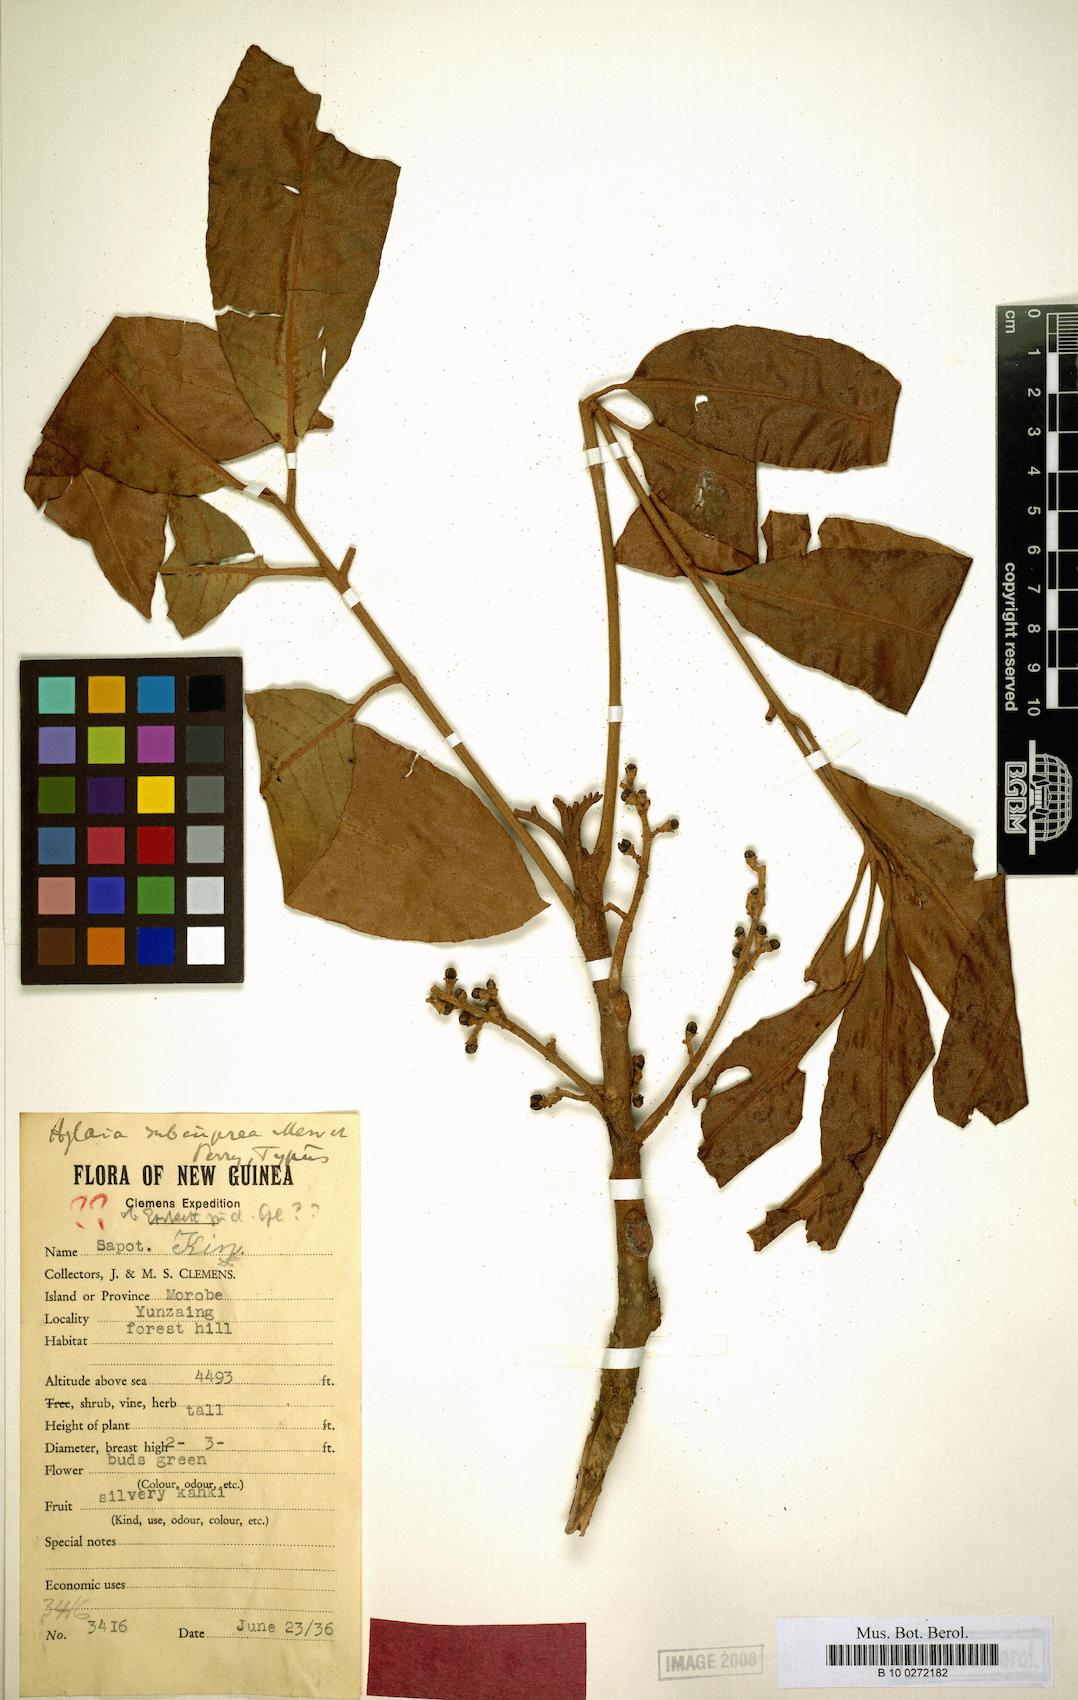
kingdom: Plantae
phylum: Tracheophyta
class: Magnoliopsida
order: Sapindales
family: Meliaceae
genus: Aglaia
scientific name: Aglaia subcuprea
